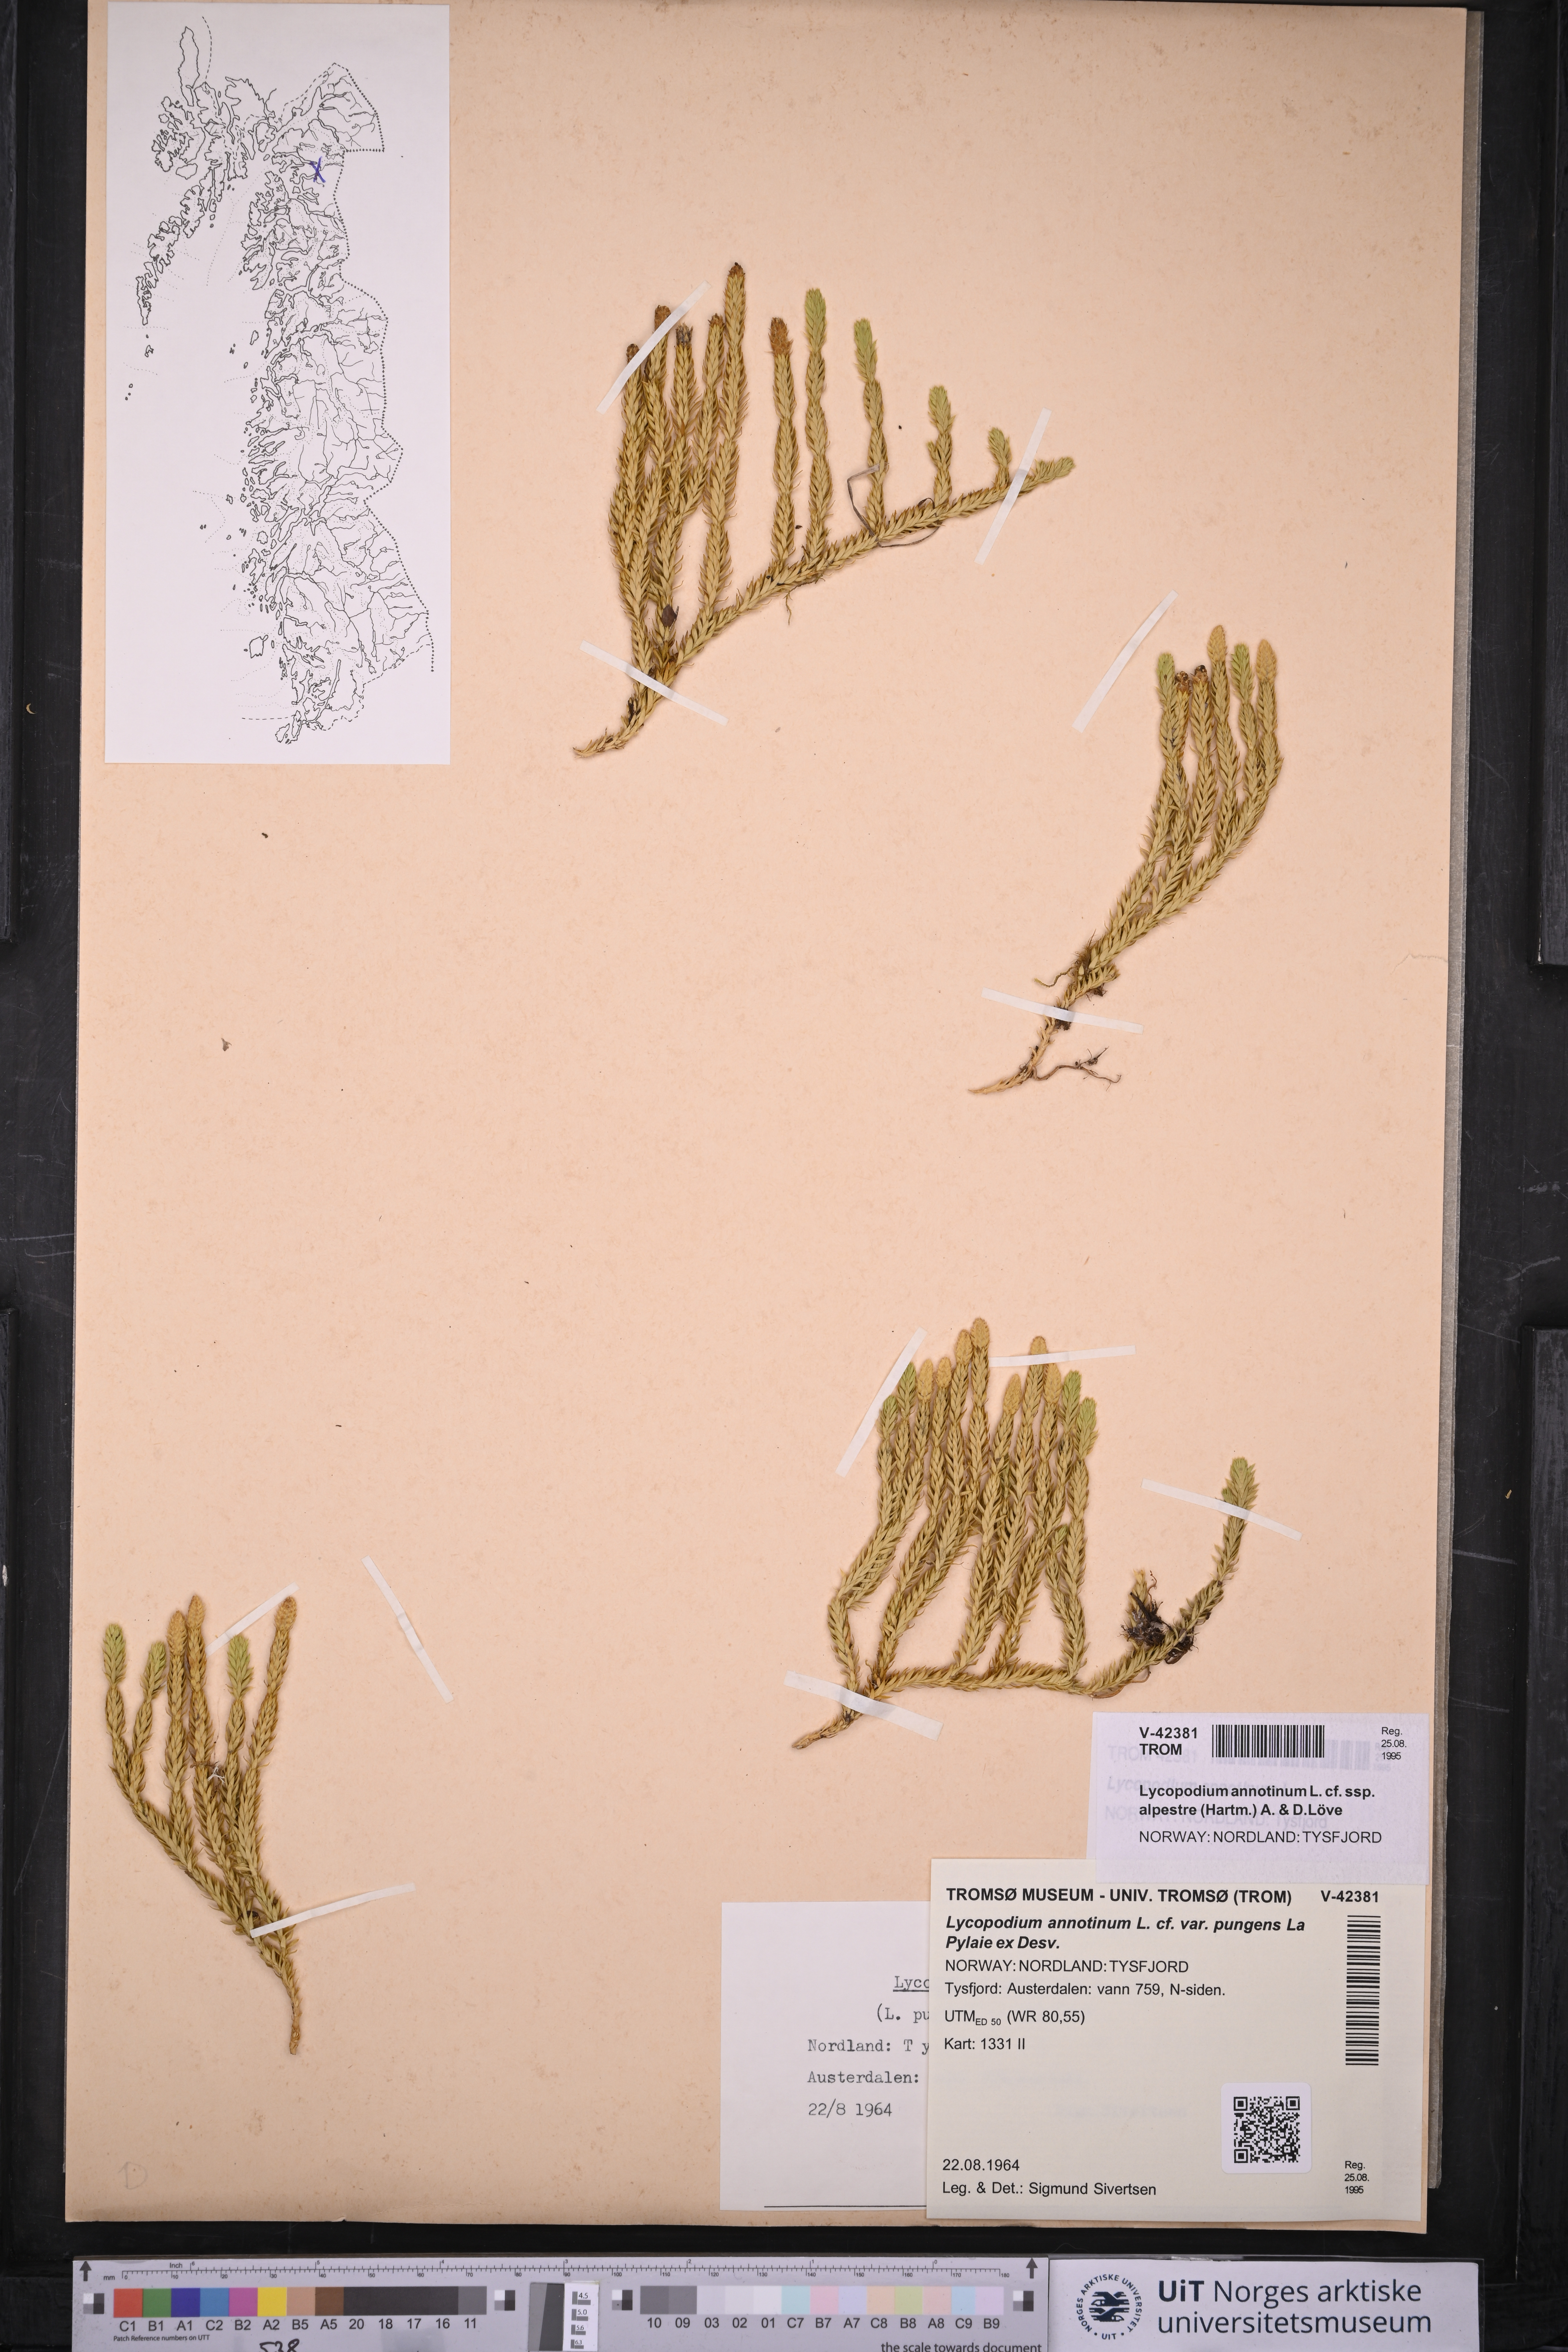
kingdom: Plantae
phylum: Tracheophyta
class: Lycopodiopsida
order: Lycopodiales
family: Lycopodiaceae
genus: Spinulum
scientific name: Spinulum annotinum
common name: Interrupted club-moss
